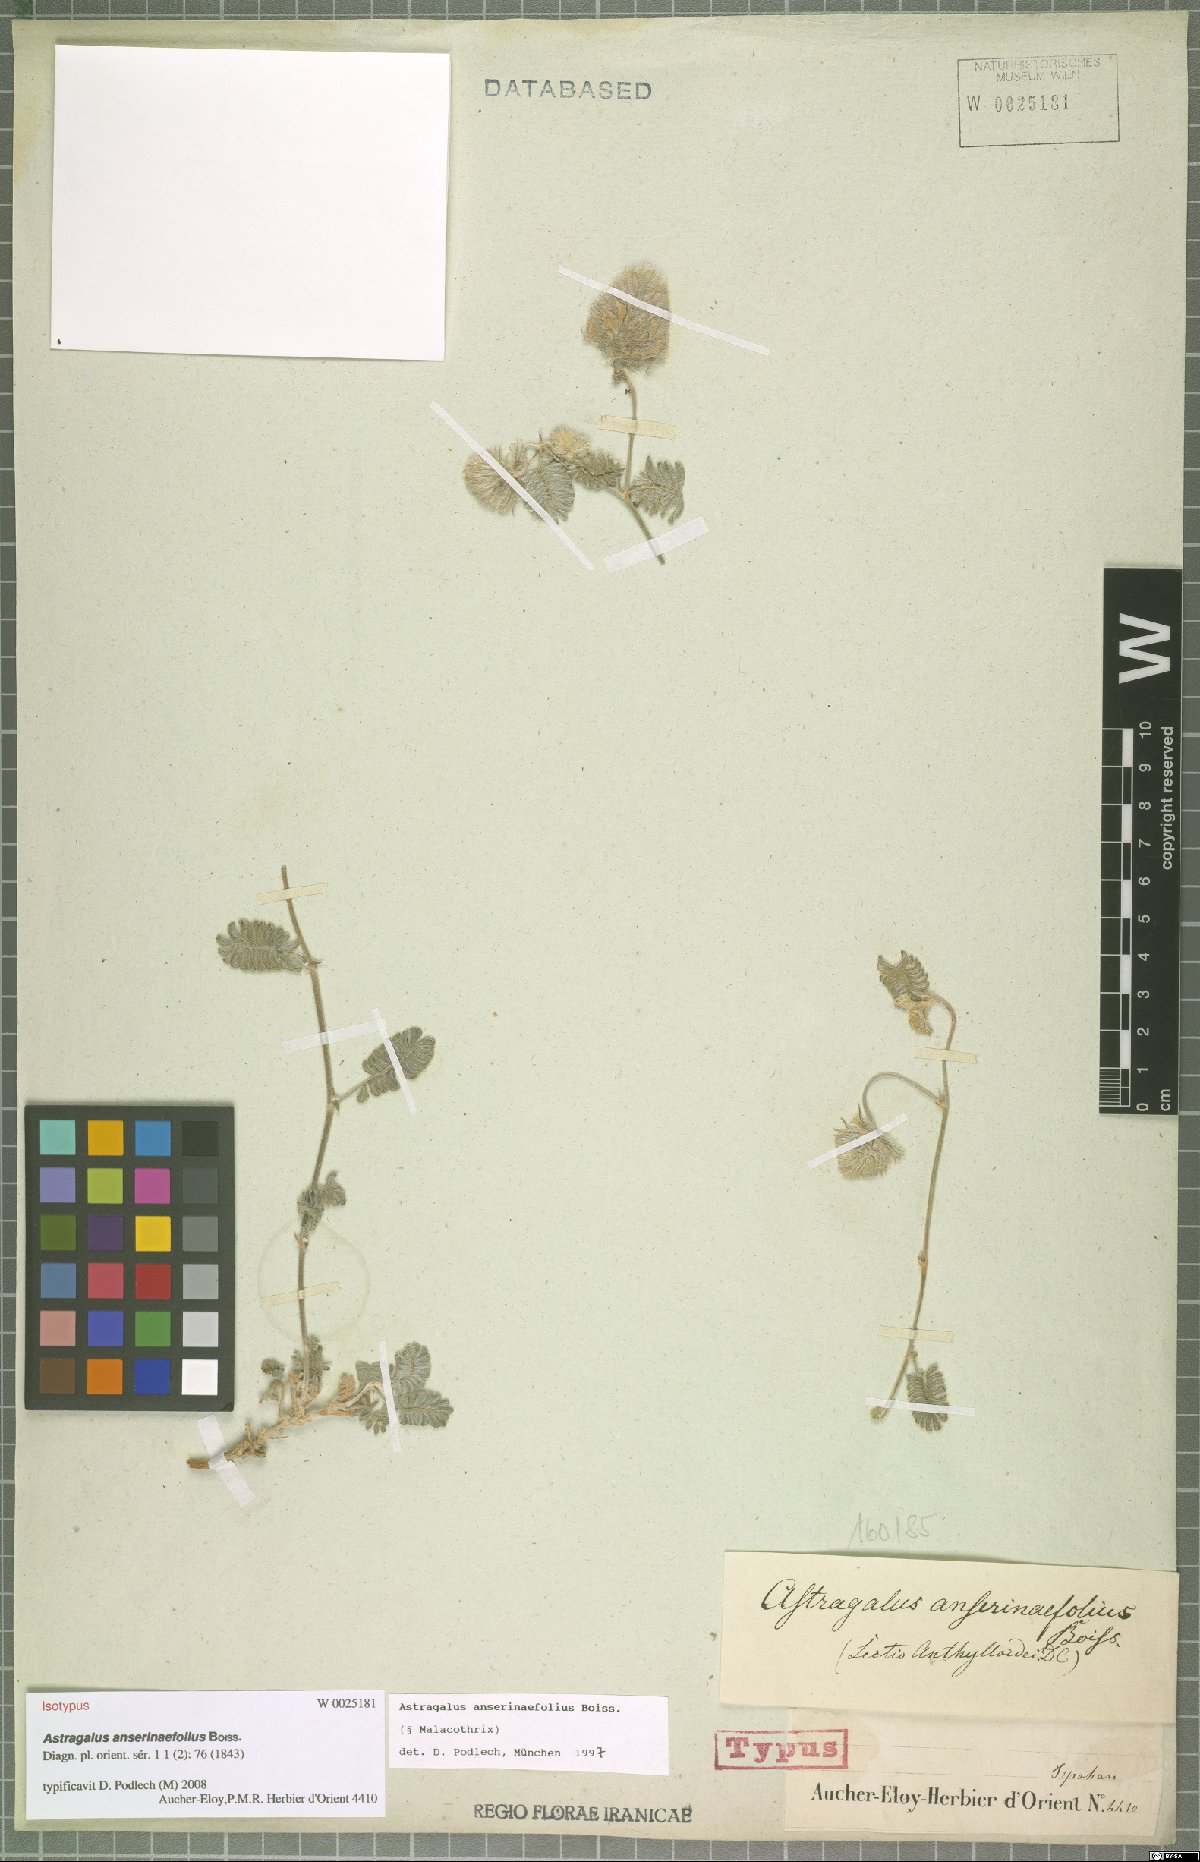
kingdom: Plantae
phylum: Tracheophyta
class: Magnoliopsida
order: Fabales
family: Fabaceae
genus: Astragalus
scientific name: Astragalus anserinifolius
